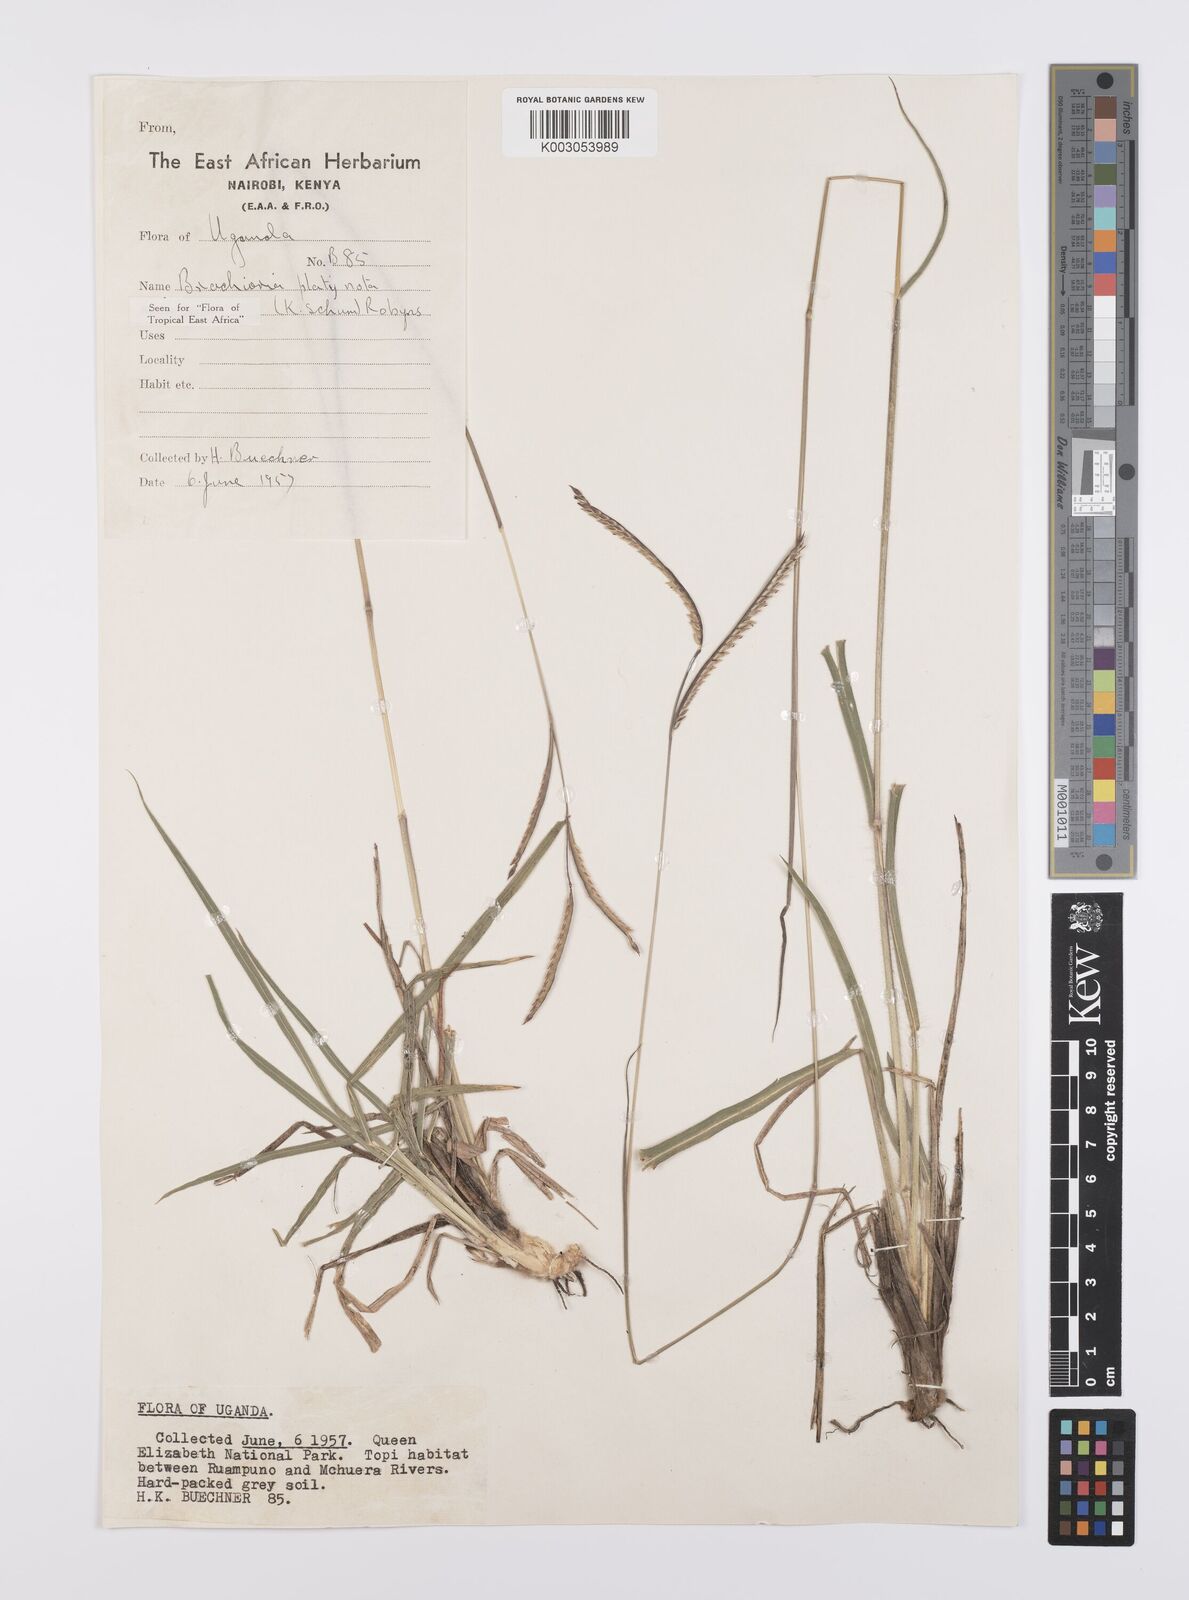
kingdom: Plantae
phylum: Tracheophyta
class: Liliopsida
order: Poales
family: Poaceae
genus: Urochloa
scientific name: Urochloa platynota
